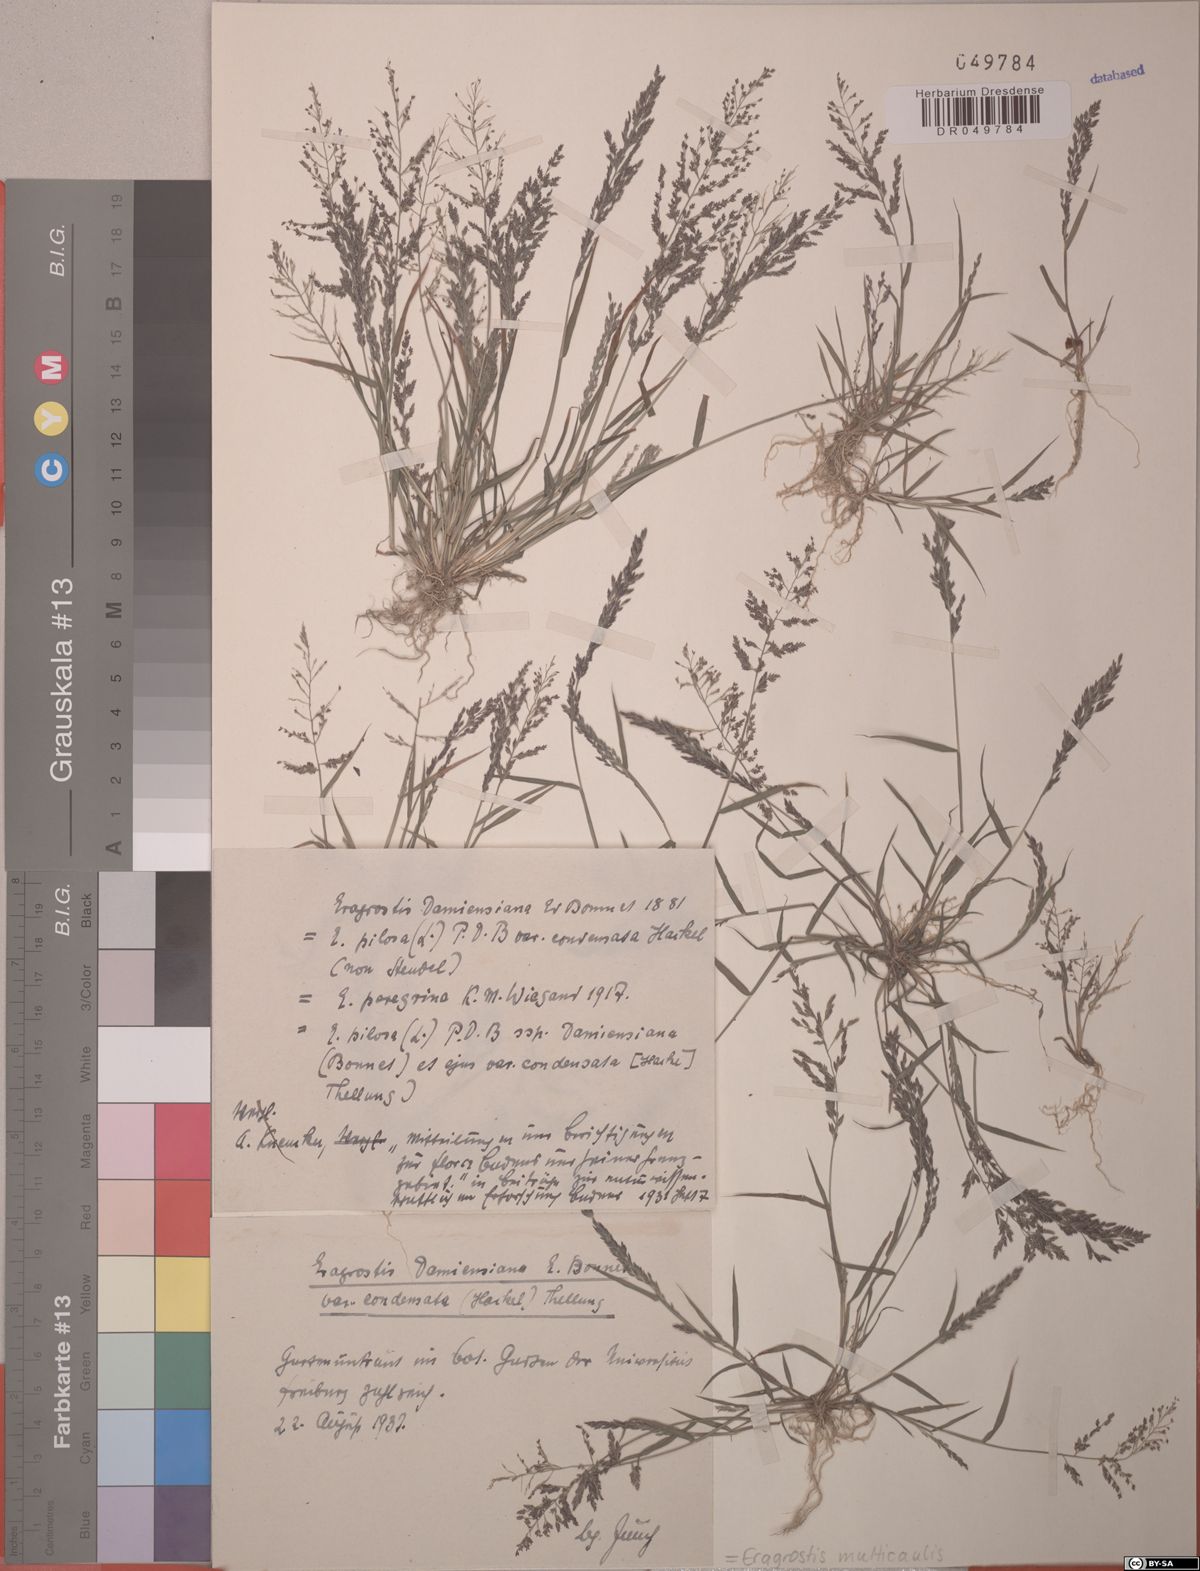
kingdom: Plantae
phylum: Tracheophyta
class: Liliopsida
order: Poales
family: Poaceae
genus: Eragrostis
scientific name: Eragrostis multicaulis
